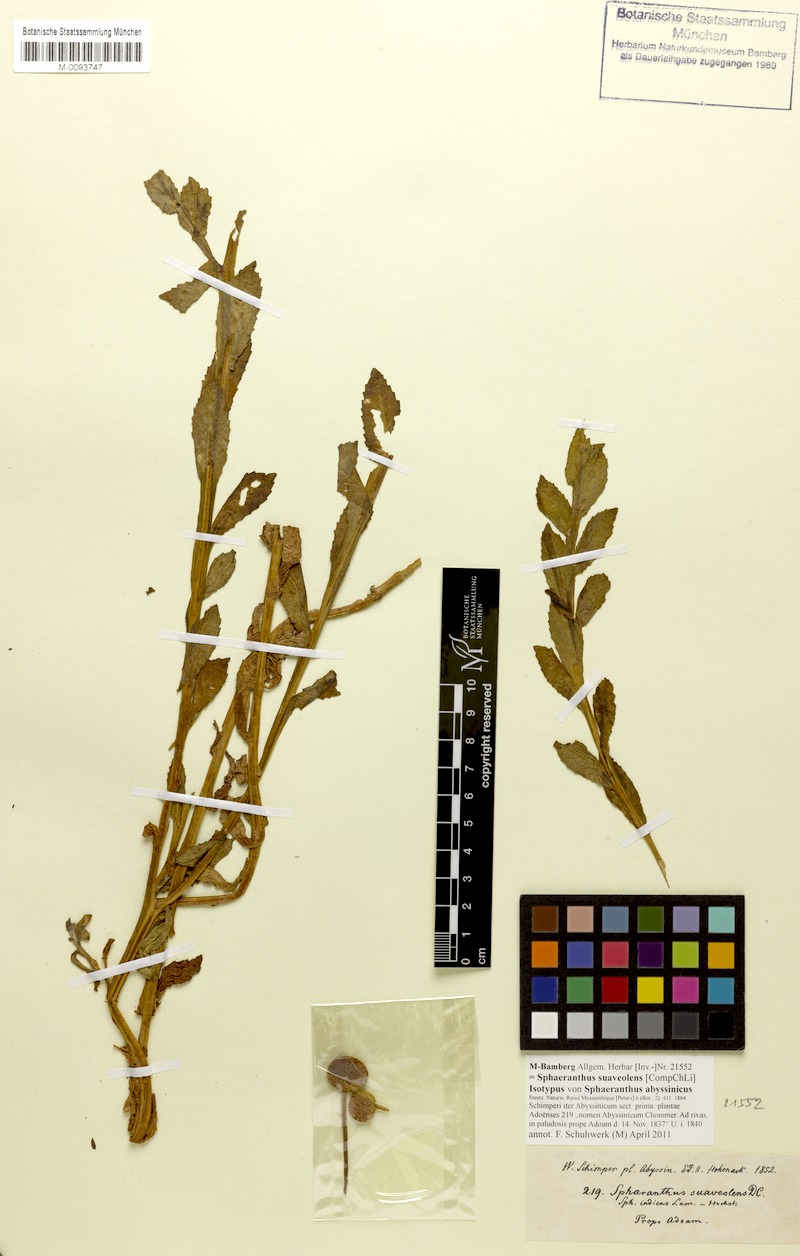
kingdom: Plantae
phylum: Tracheophyta
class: Magnoliopsida
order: Asterales
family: Asteraceae
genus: Sphaeranthus
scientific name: Sphaeranthus suaveolens
